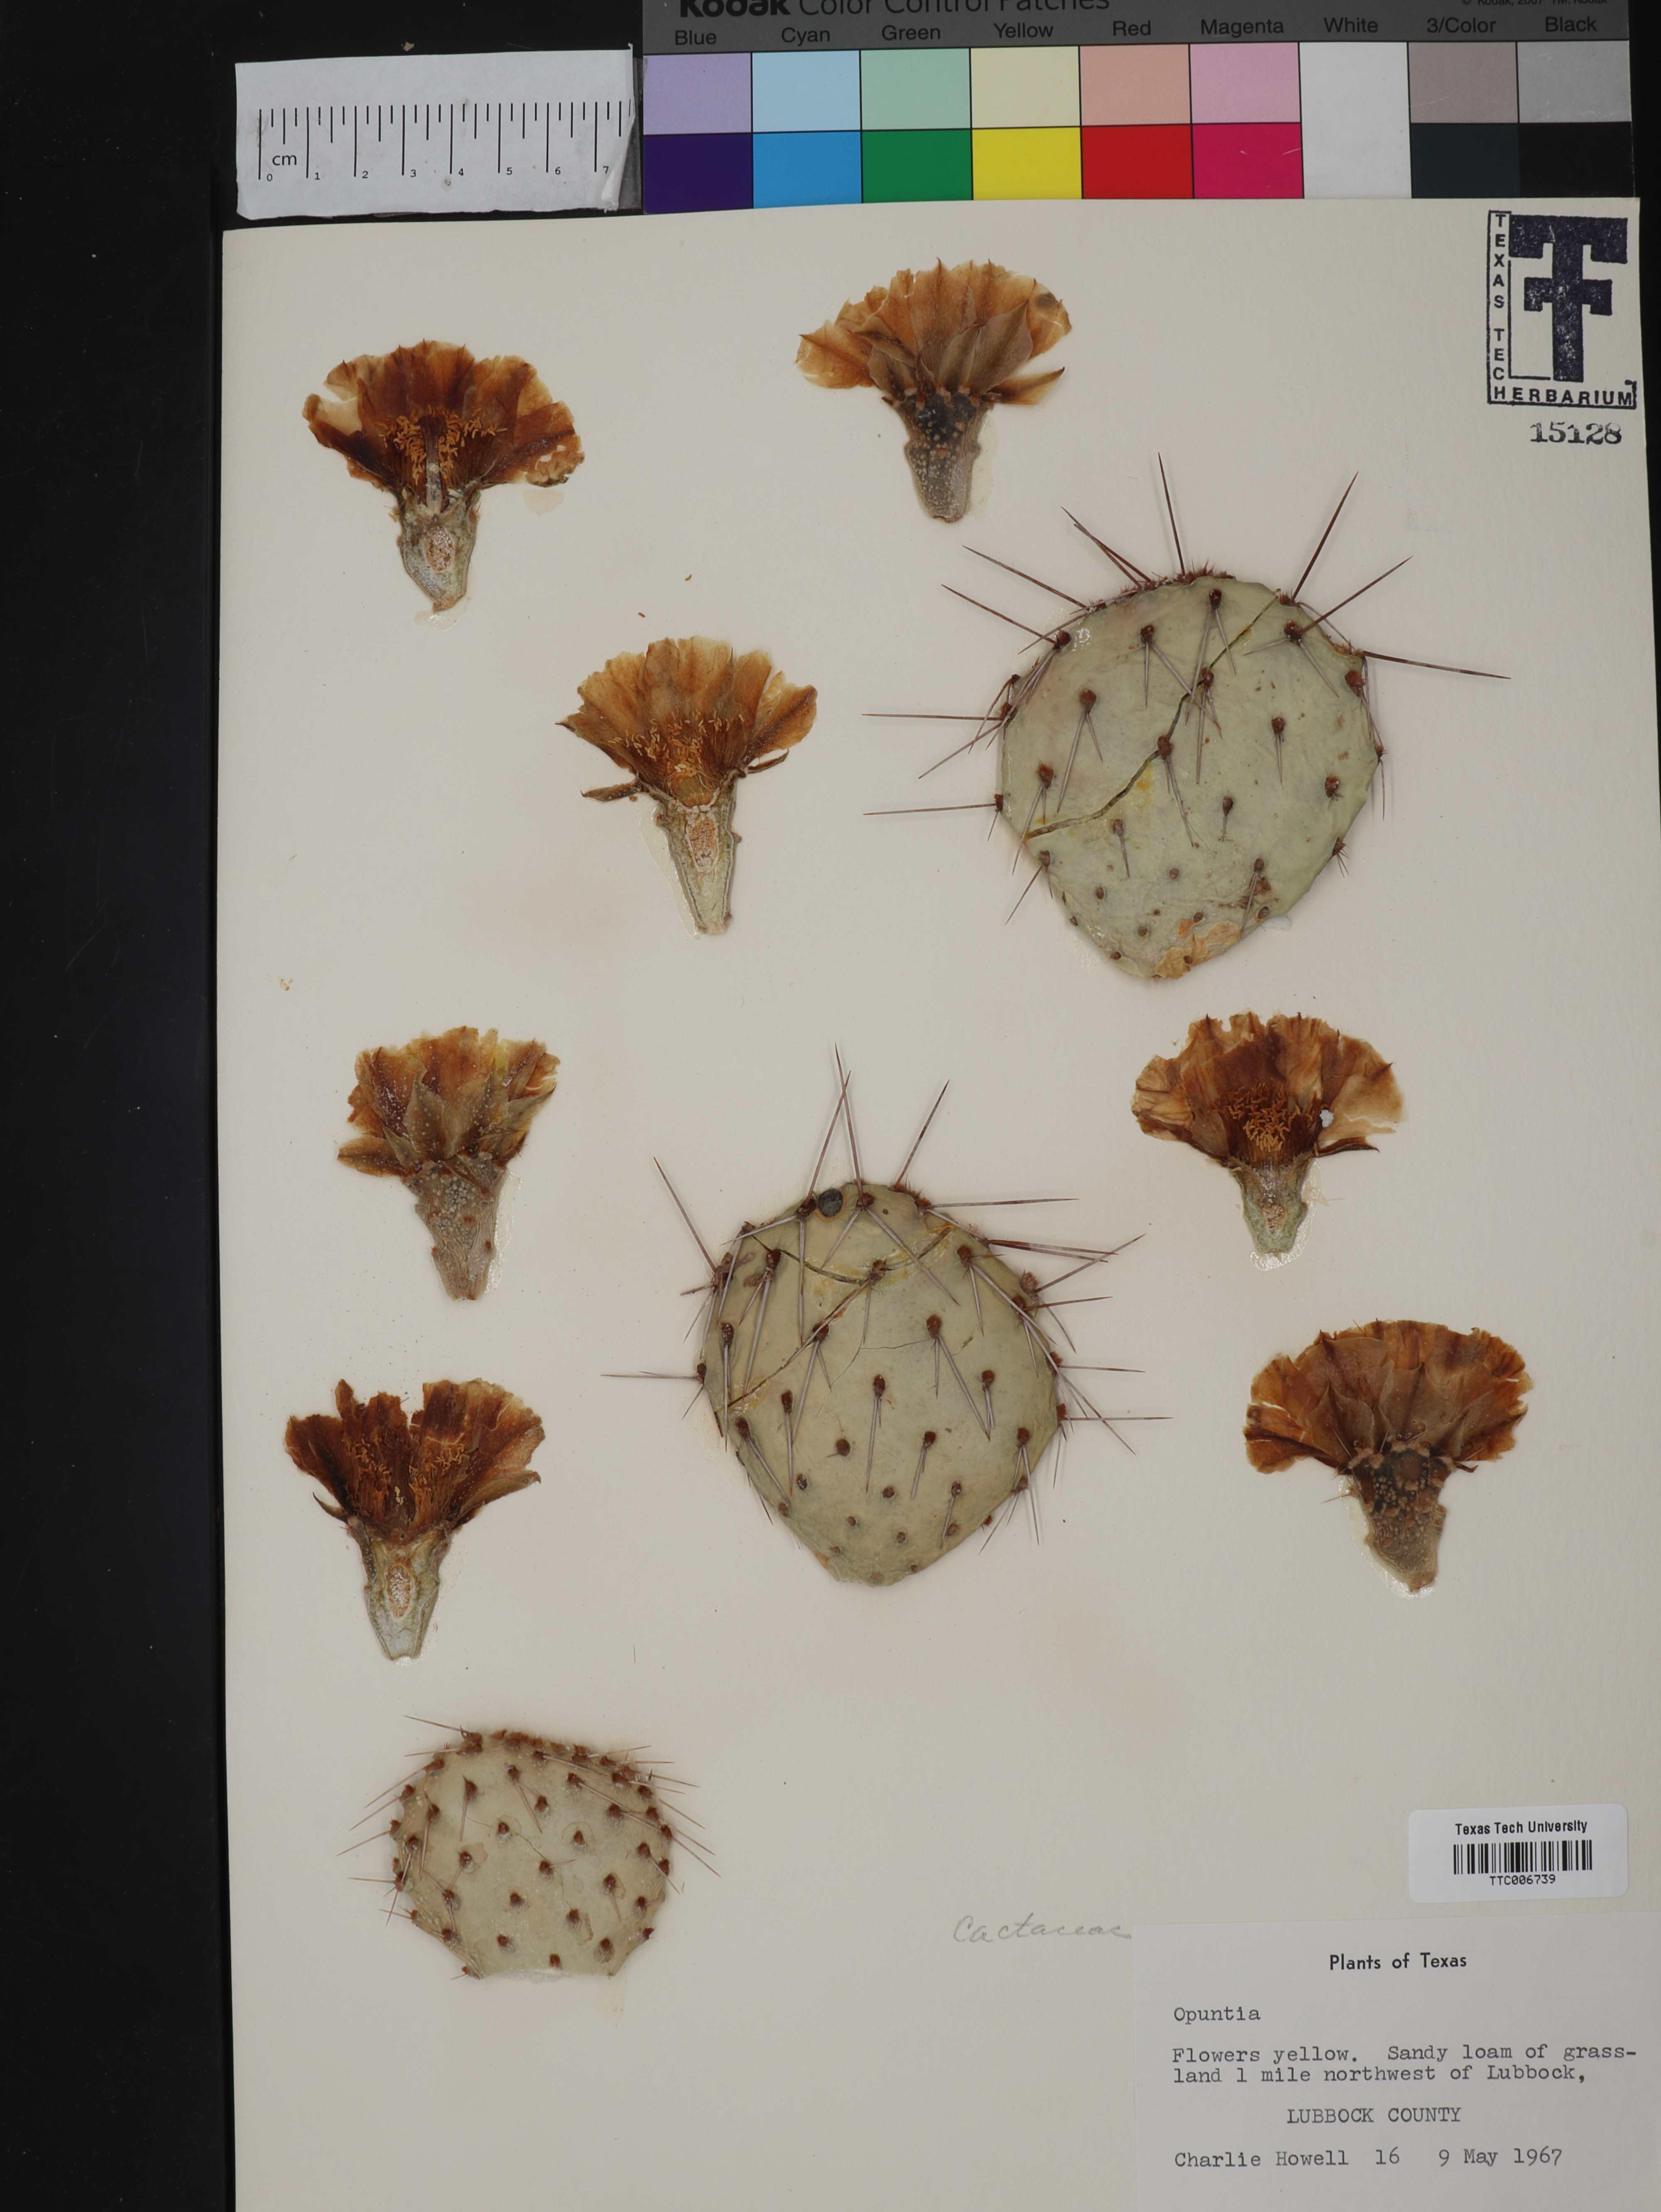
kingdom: Plantae
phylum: Tracheophyta
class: Magnoliopsida
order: Caryophyllales
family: Cactaceae
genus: Opuntia
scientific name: Opuntia
